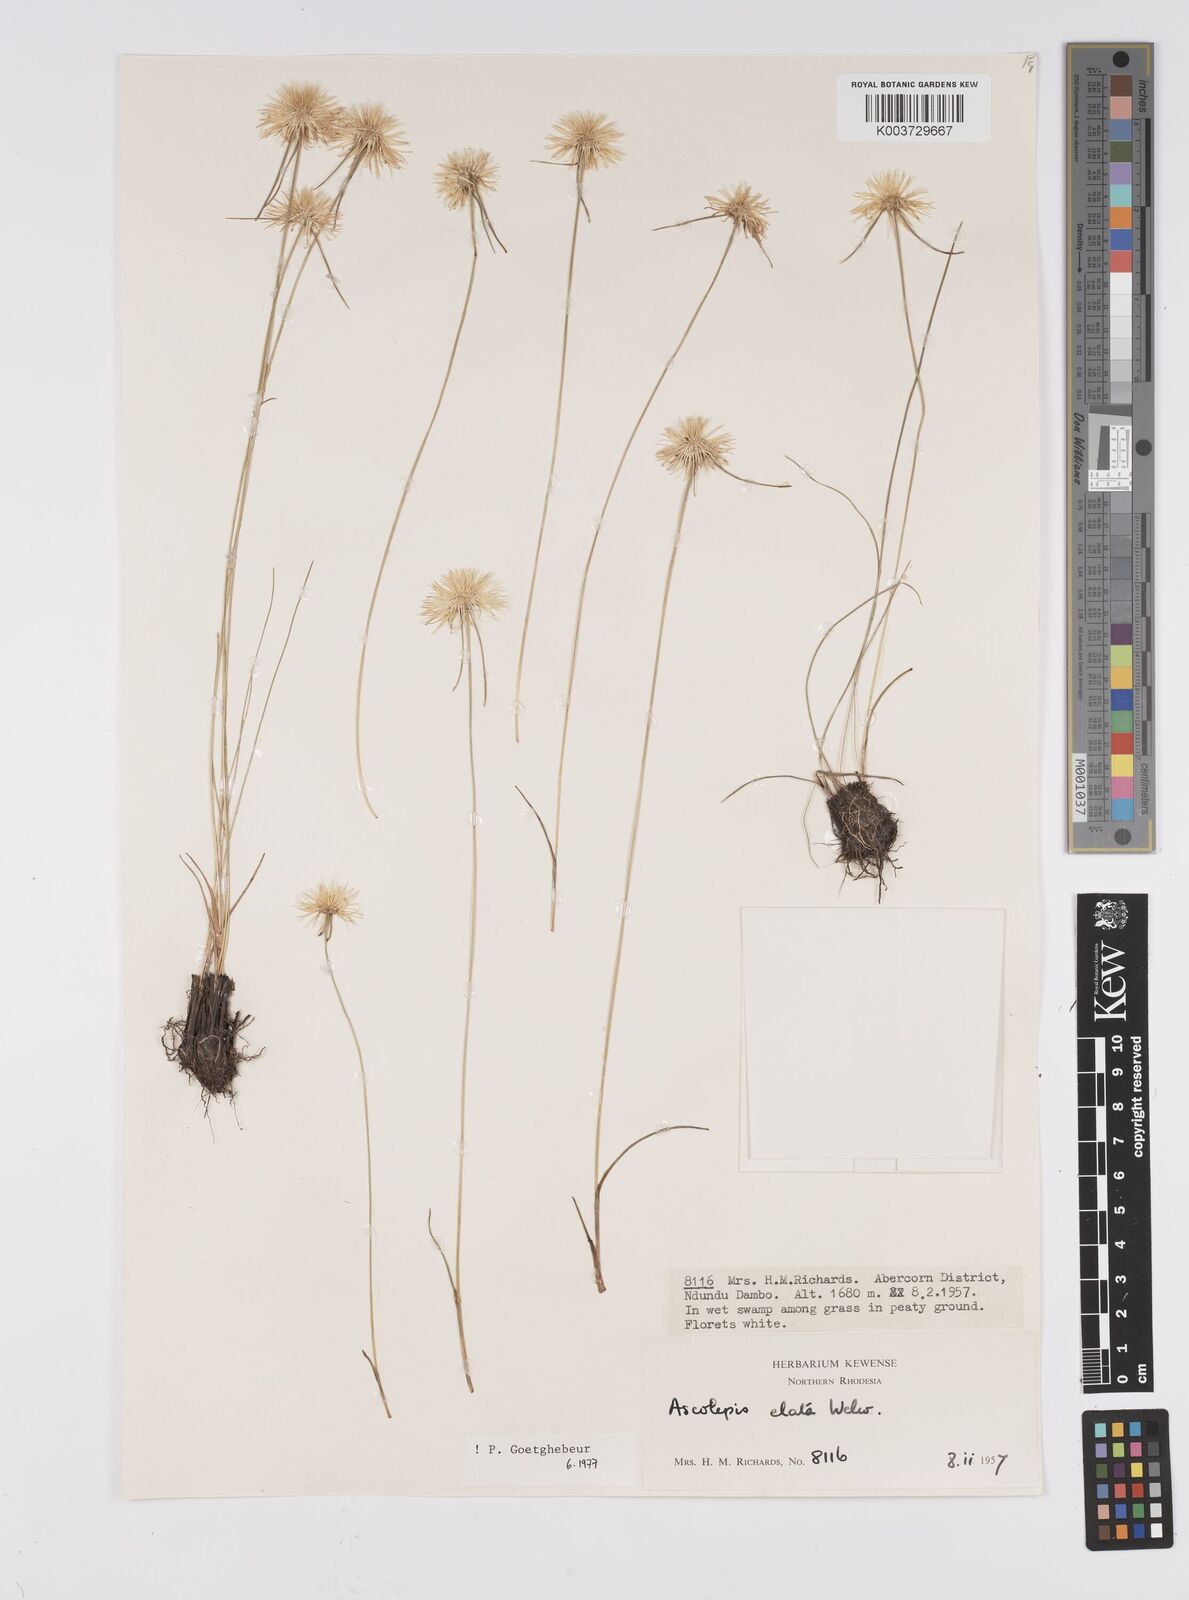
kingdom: Plantae
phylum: Tracheophyta
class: Liliopsida
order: Poales
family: Cyperaceae
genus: Cyperus
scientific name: Cyperus
